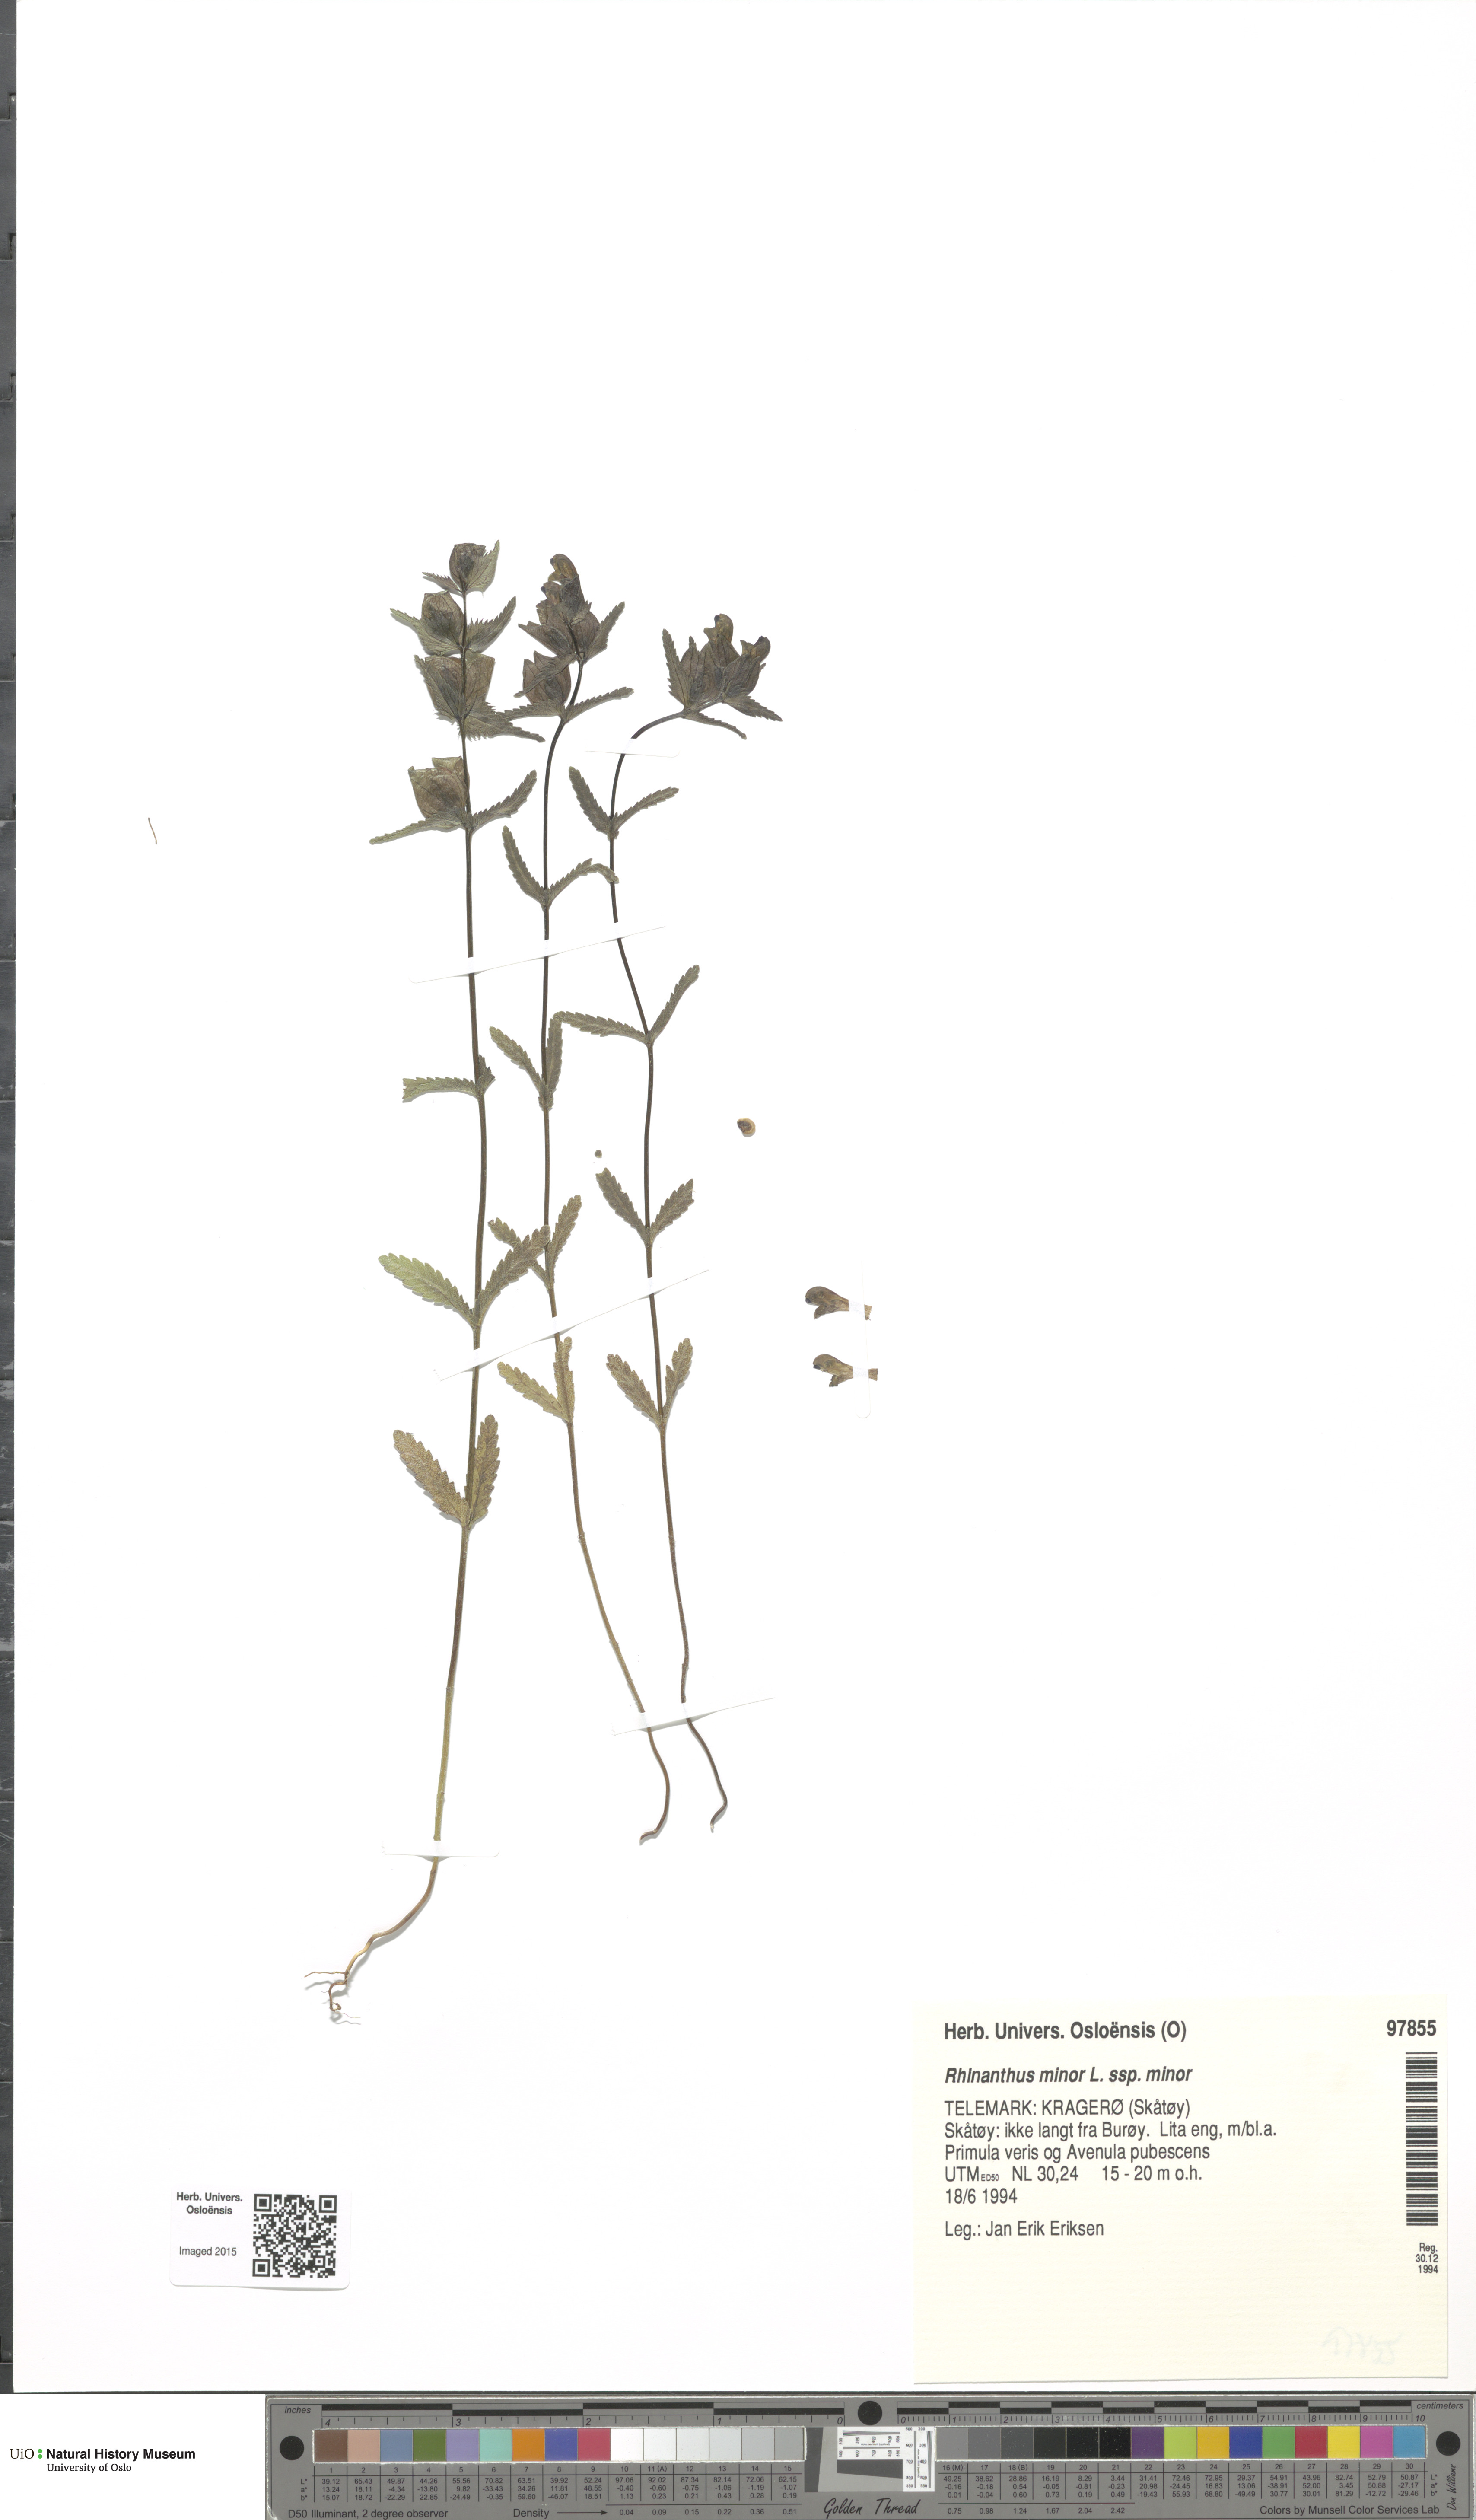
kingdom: Plantae
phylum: Tracheophyta
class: Magnoliopsida
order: Lamiales
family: Orobanchaceae
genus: Rhinanthus
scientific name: Rhinanthus minor
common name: Yellow-rattle
